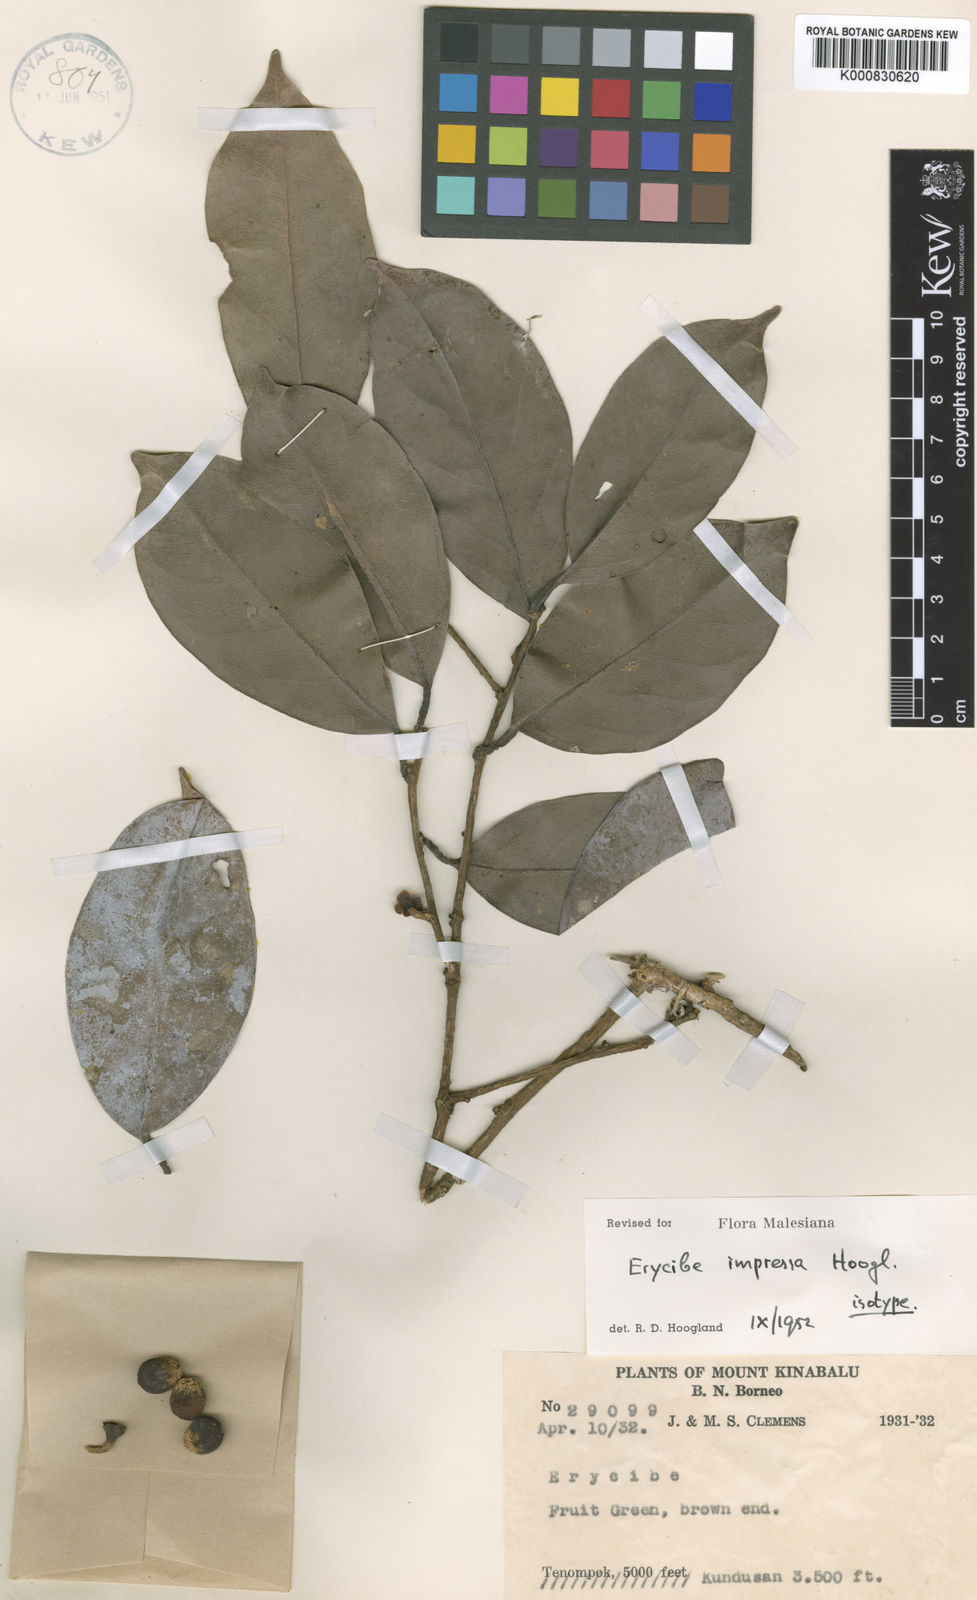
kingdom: Plantae
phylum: Tracheophyta
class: Magnoliopsida
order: Solanales
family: Convolvulaceae
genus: Erycibe
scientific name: Erycibe impressa
